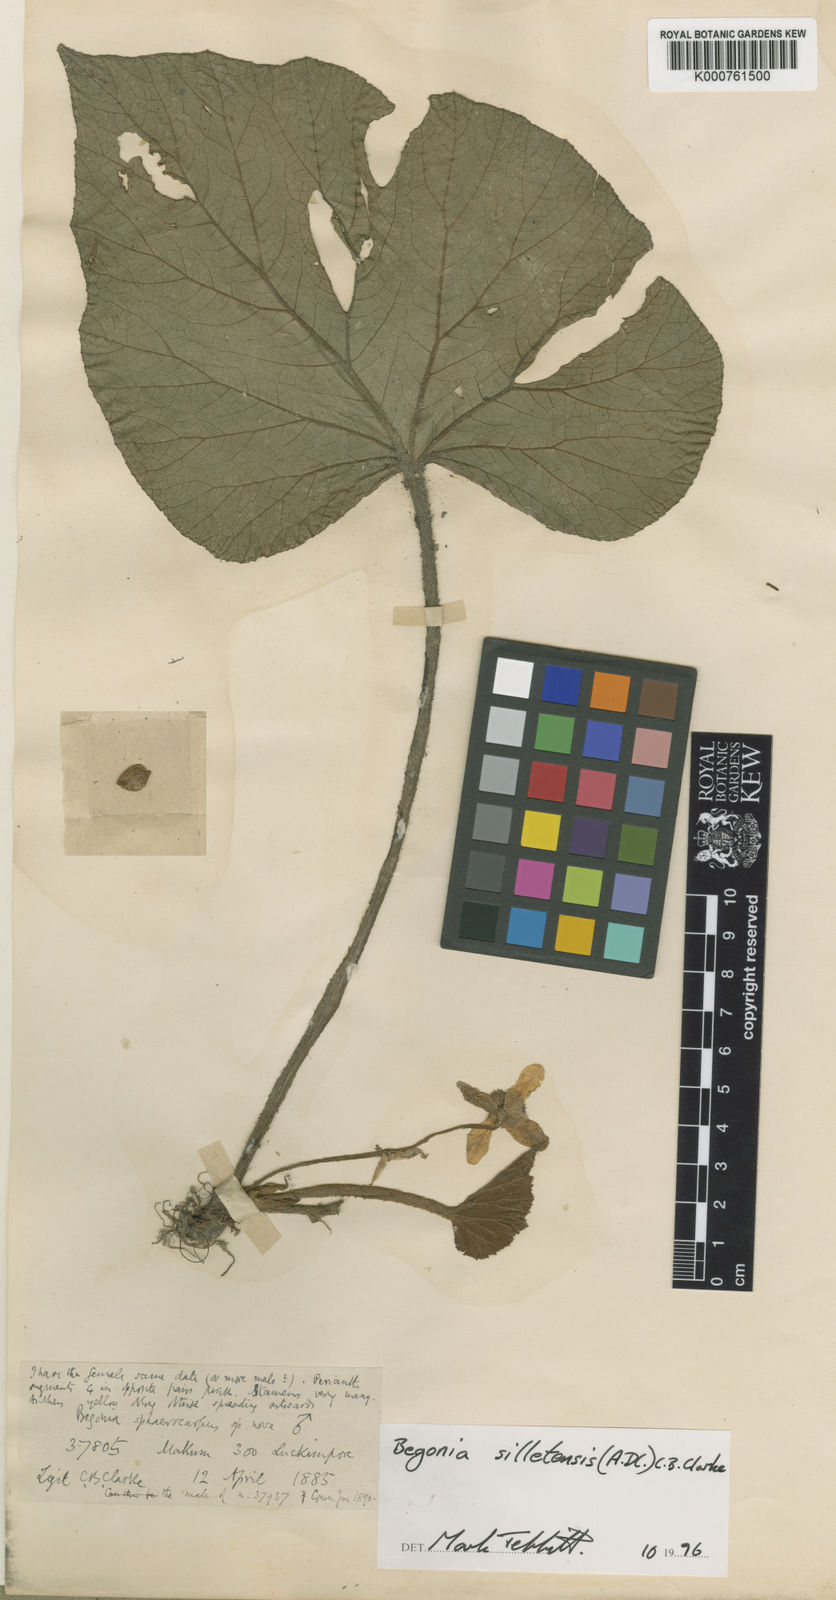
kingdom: Plantae
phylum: Tracheophyta
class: Magnoliopsida
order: Cucurbitales
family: Begoniaceae
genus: Begonia
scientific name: Begonia silletensis
